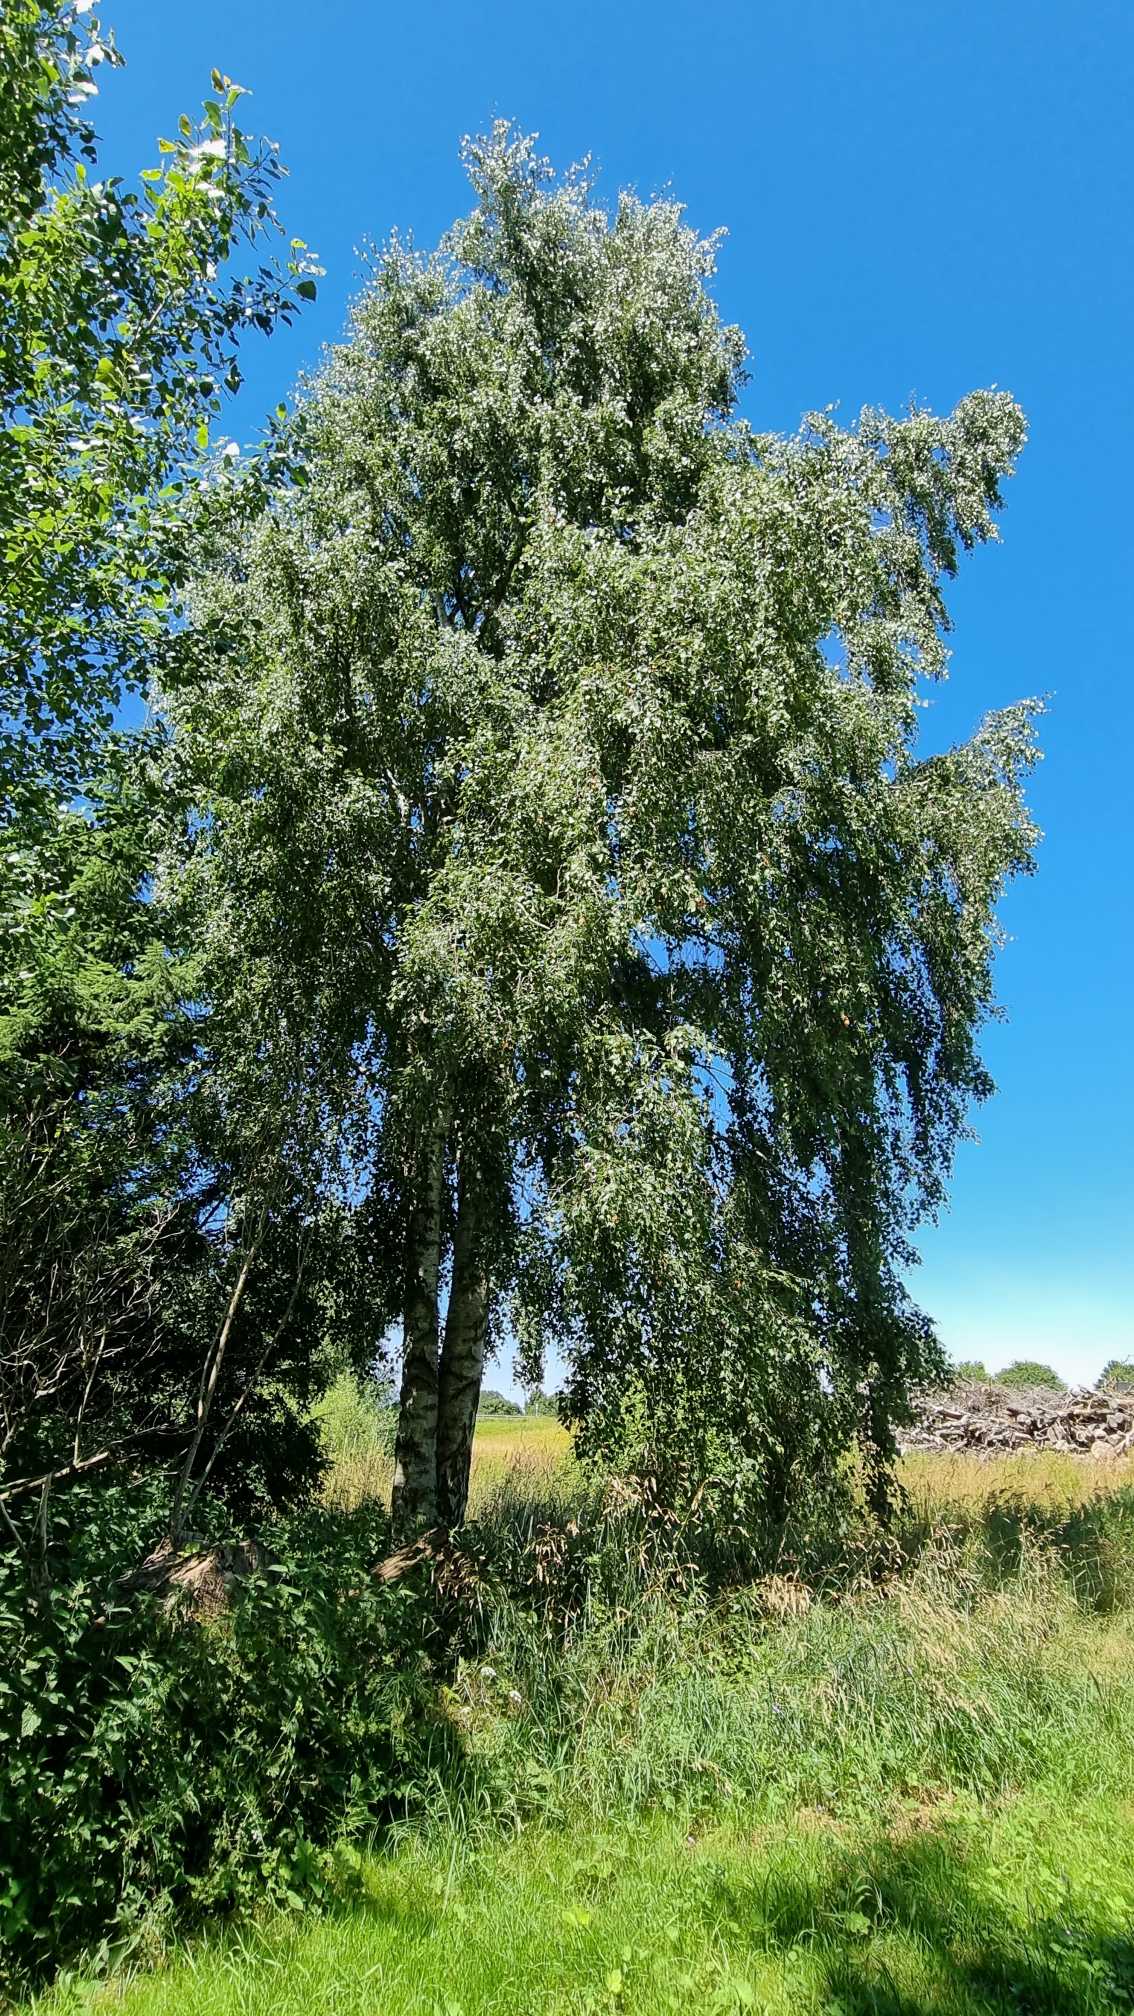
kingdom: Plantae
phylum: Tracheophyta
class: Magnoliopsida
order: Fagales
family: Betulaceae
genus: Betula
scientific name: Betula pendula
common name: Vorte-birk
